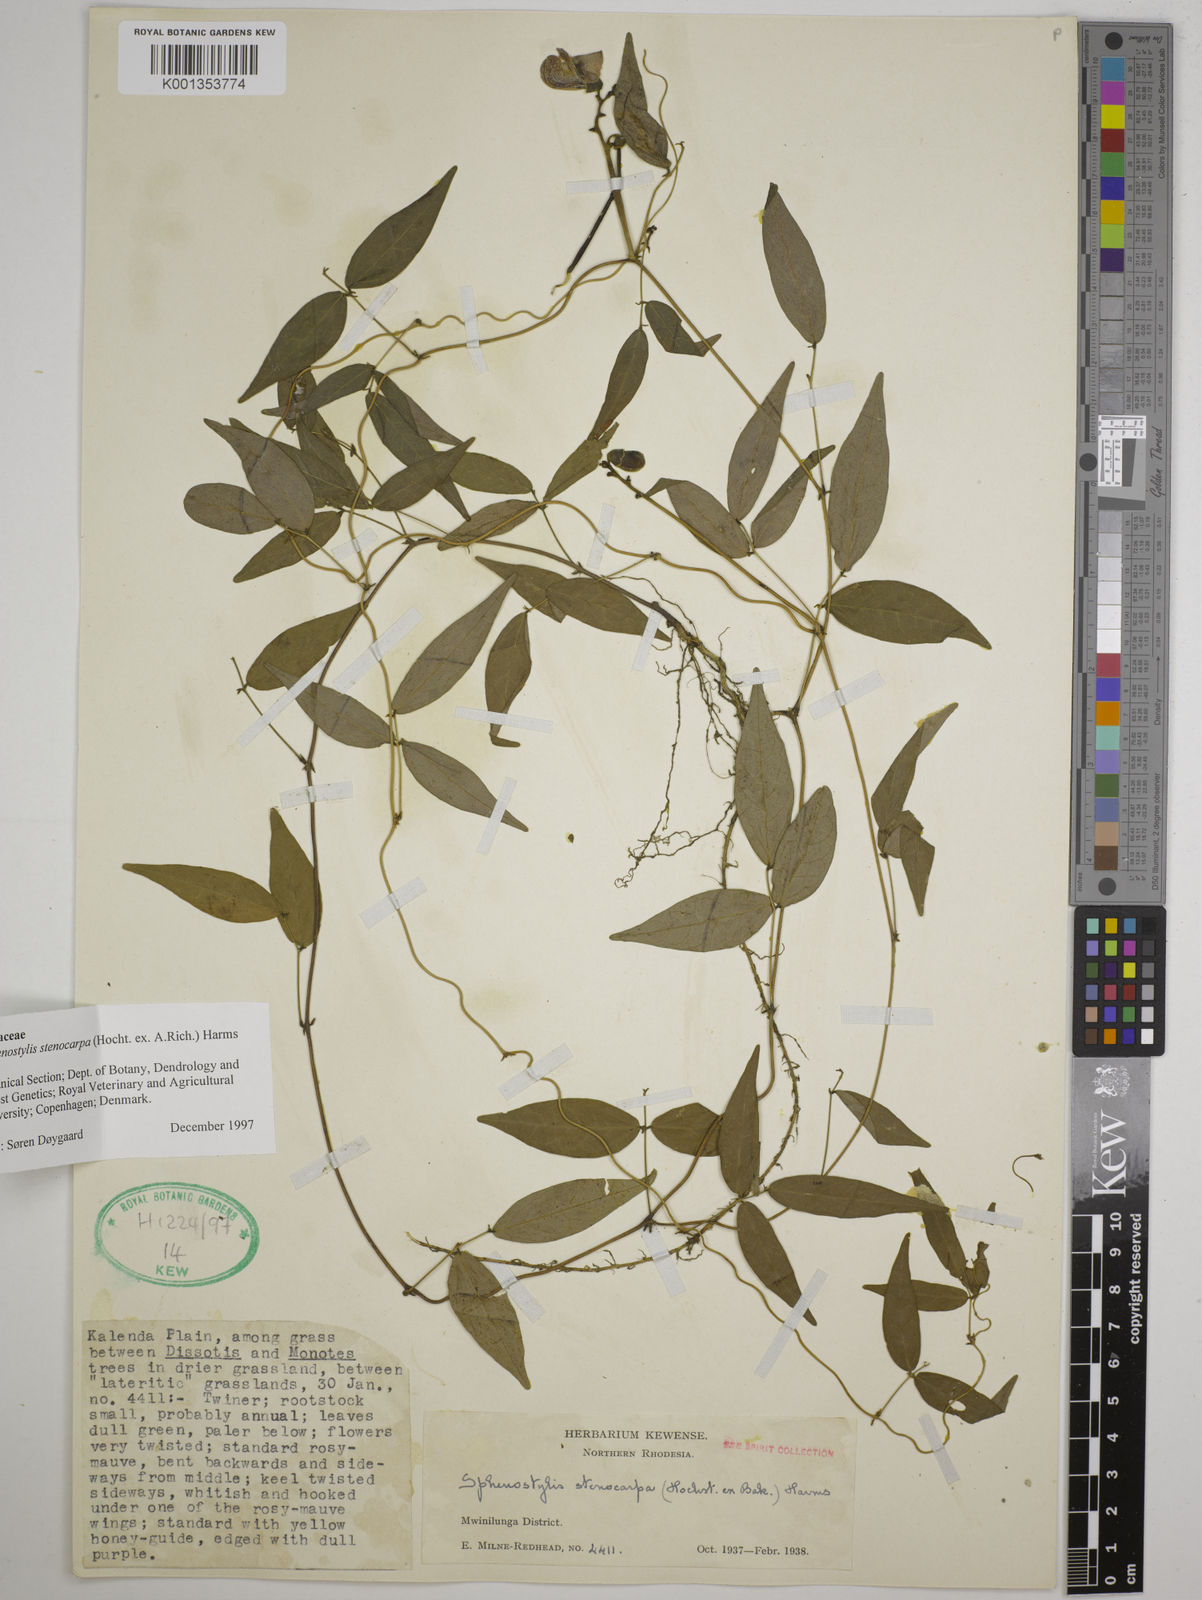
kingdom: Plantae
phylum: Tracheophyta
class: Magnoliopsida
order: Fabales
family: Fabaceae
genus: Sphenostylis
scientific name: Sphenostylis stenocarpa
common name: Yam-pea
